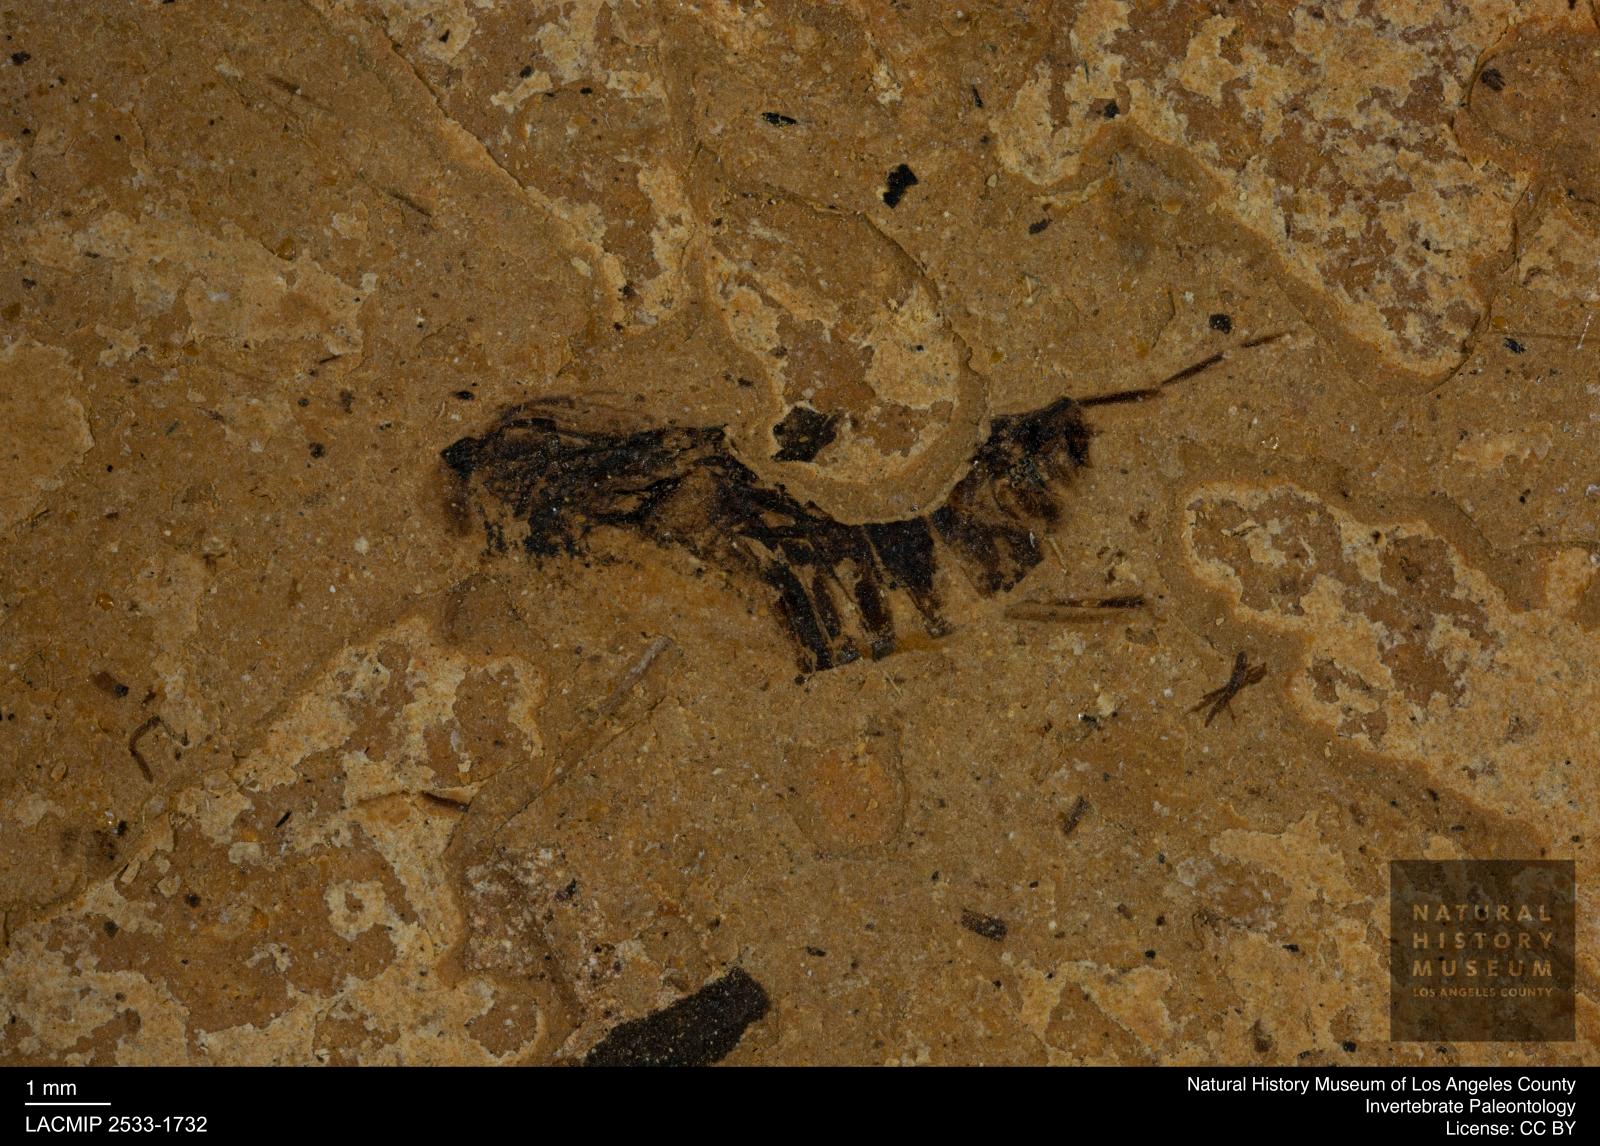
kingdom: Animalia
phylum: Arthropoda
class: Insecta
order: Hemiptera
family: Notonectidae
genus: Notonecta
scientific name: Notonecta
